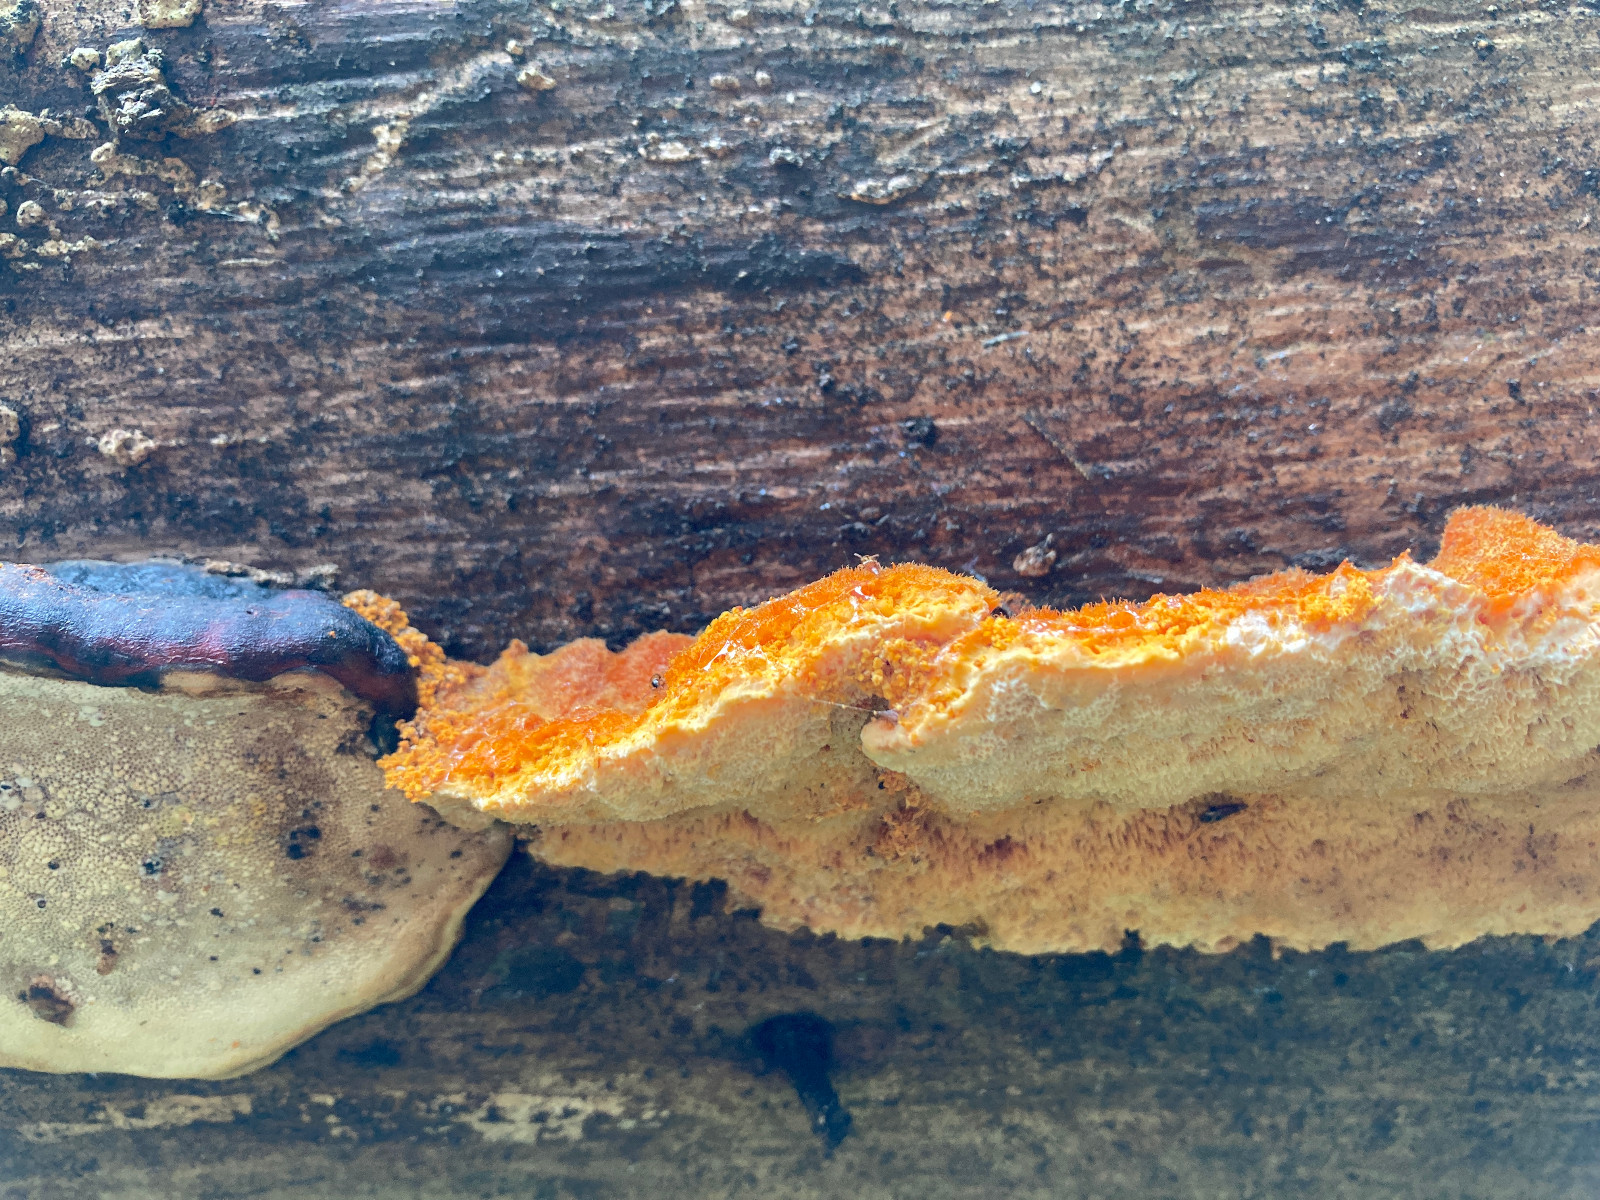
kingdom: Fungi
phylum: Basidiomycota
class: Agaricomycetes
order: Polyporales
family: Pycnoporellaceae
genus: Pycnoporellus
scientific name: Pycnoporellus fulgens
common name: flammeporesvamp
